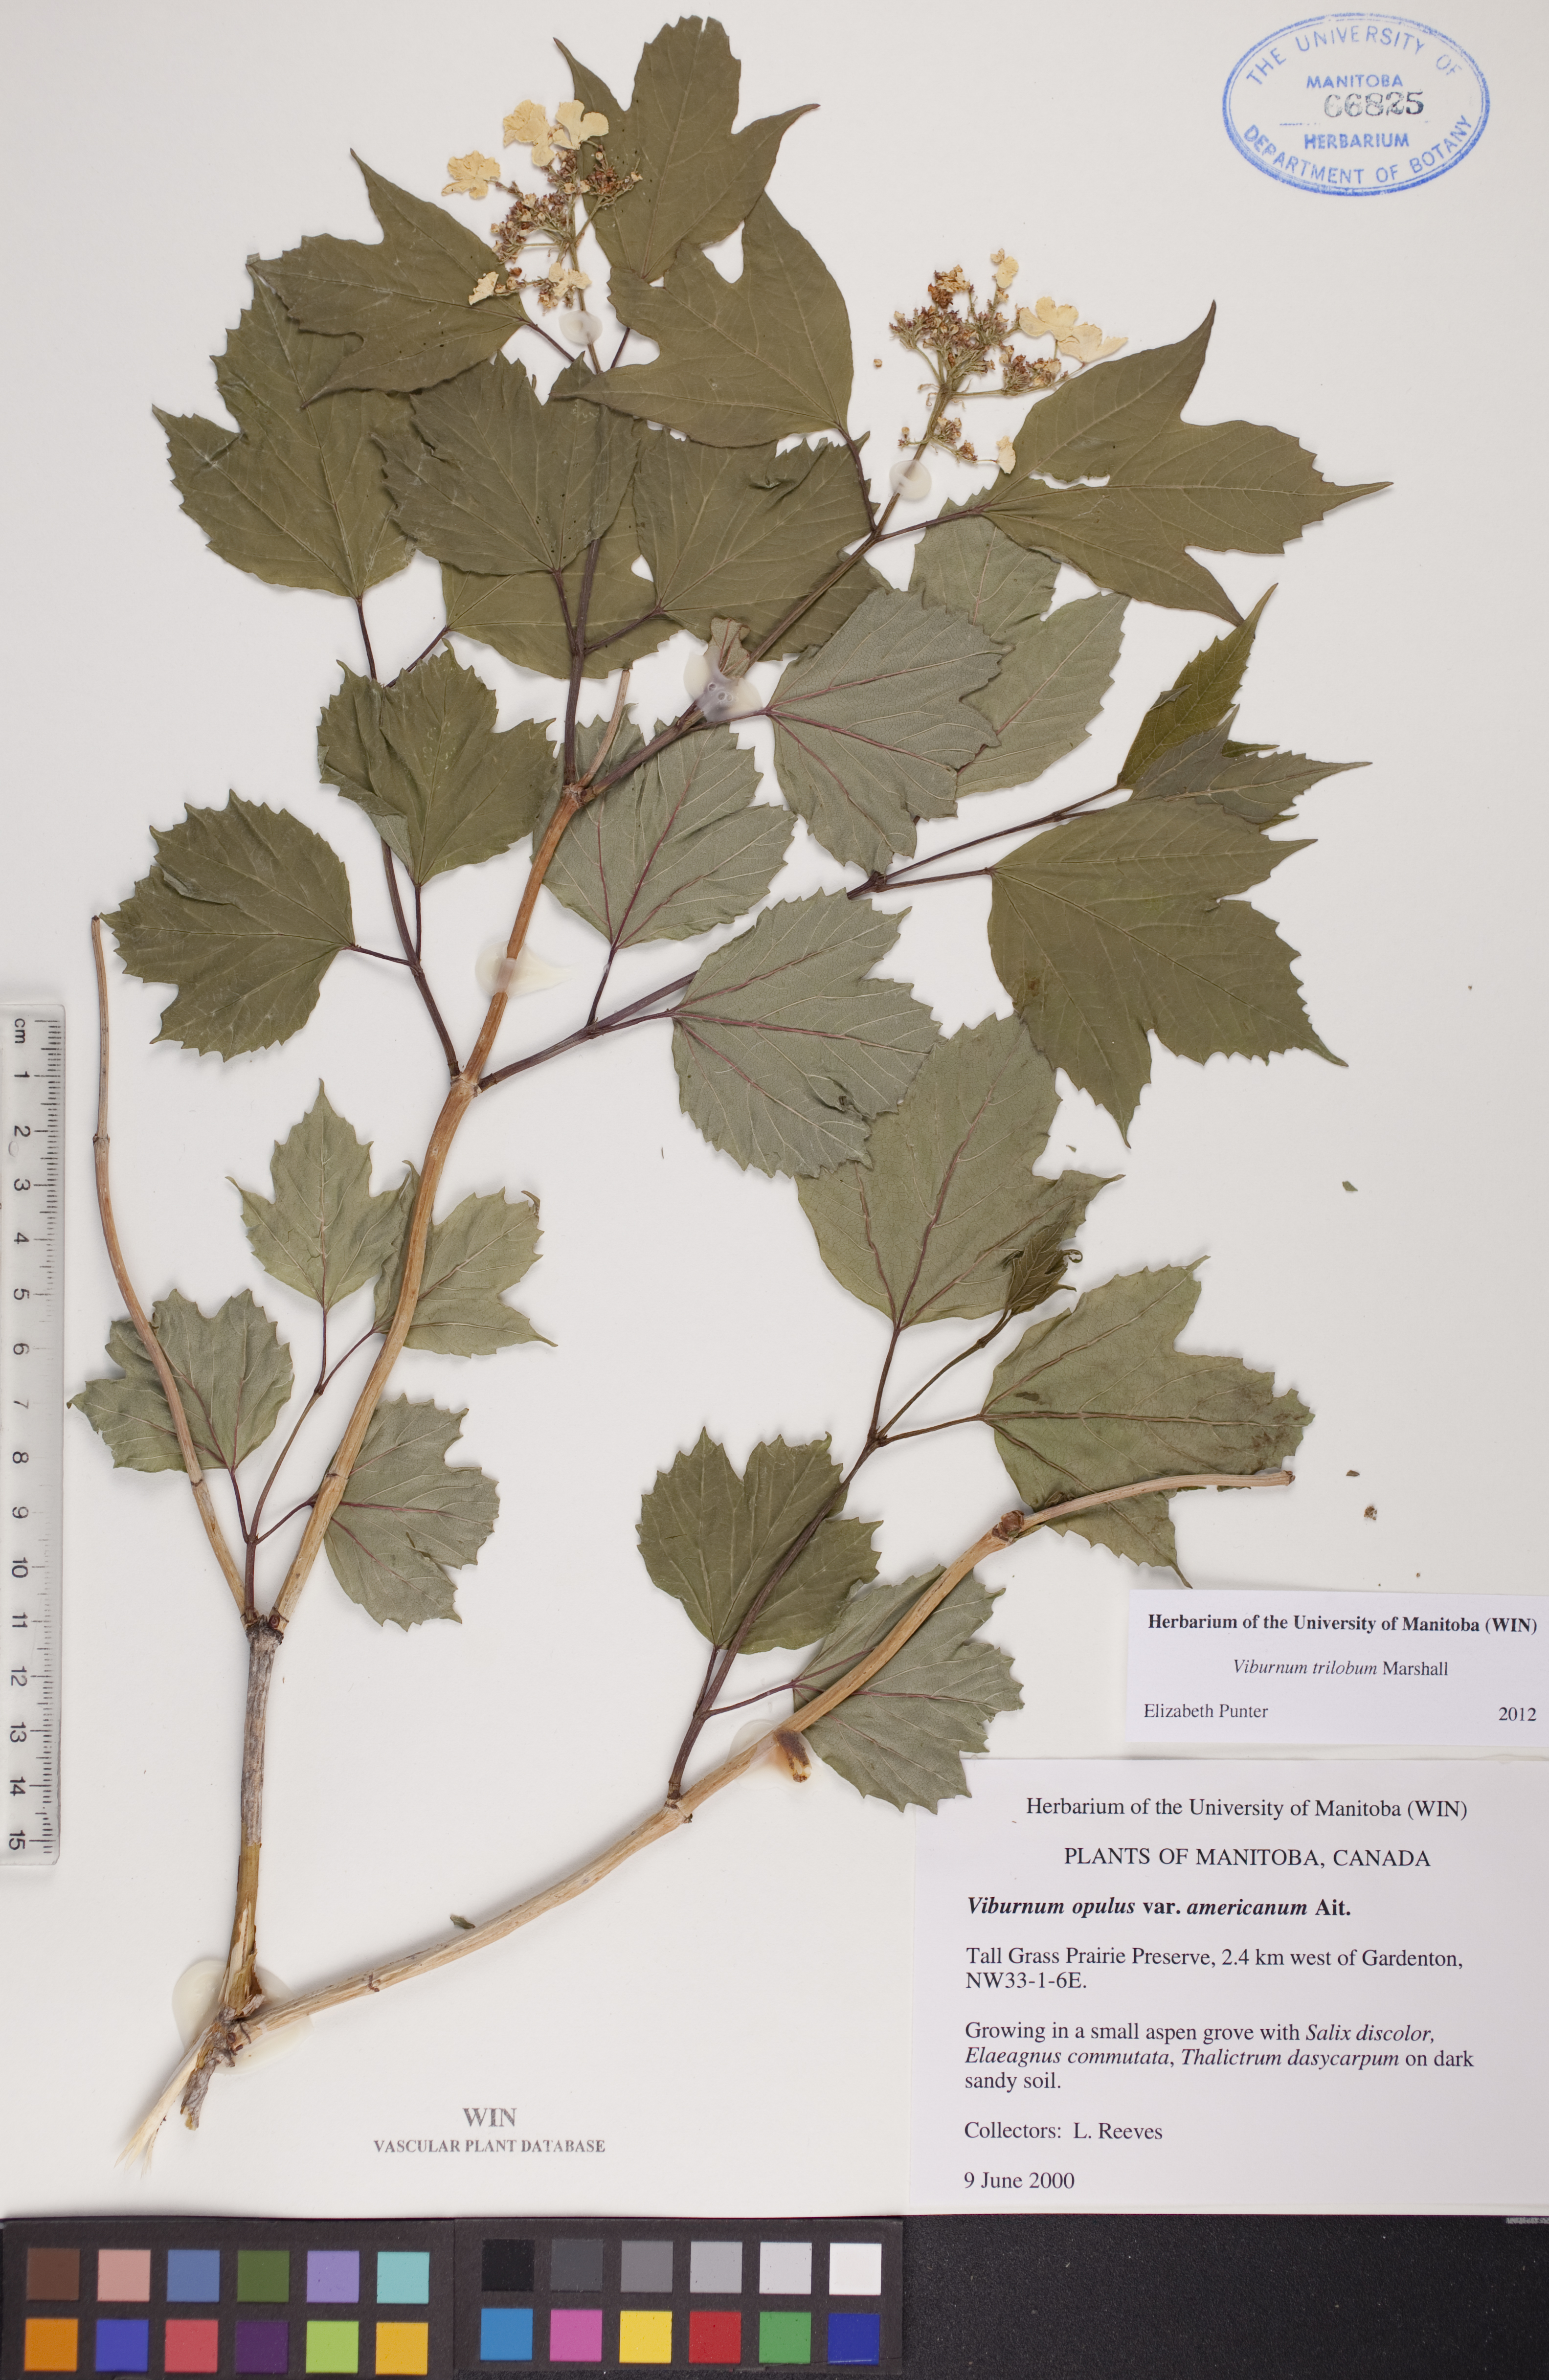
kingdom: Plantae
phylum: Tracheophyta
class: Magnoliopsida
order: Dipsacales
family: Viburnaceae
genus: Viburnum
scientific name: Viburnum trilobum
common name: American cranberrybush
